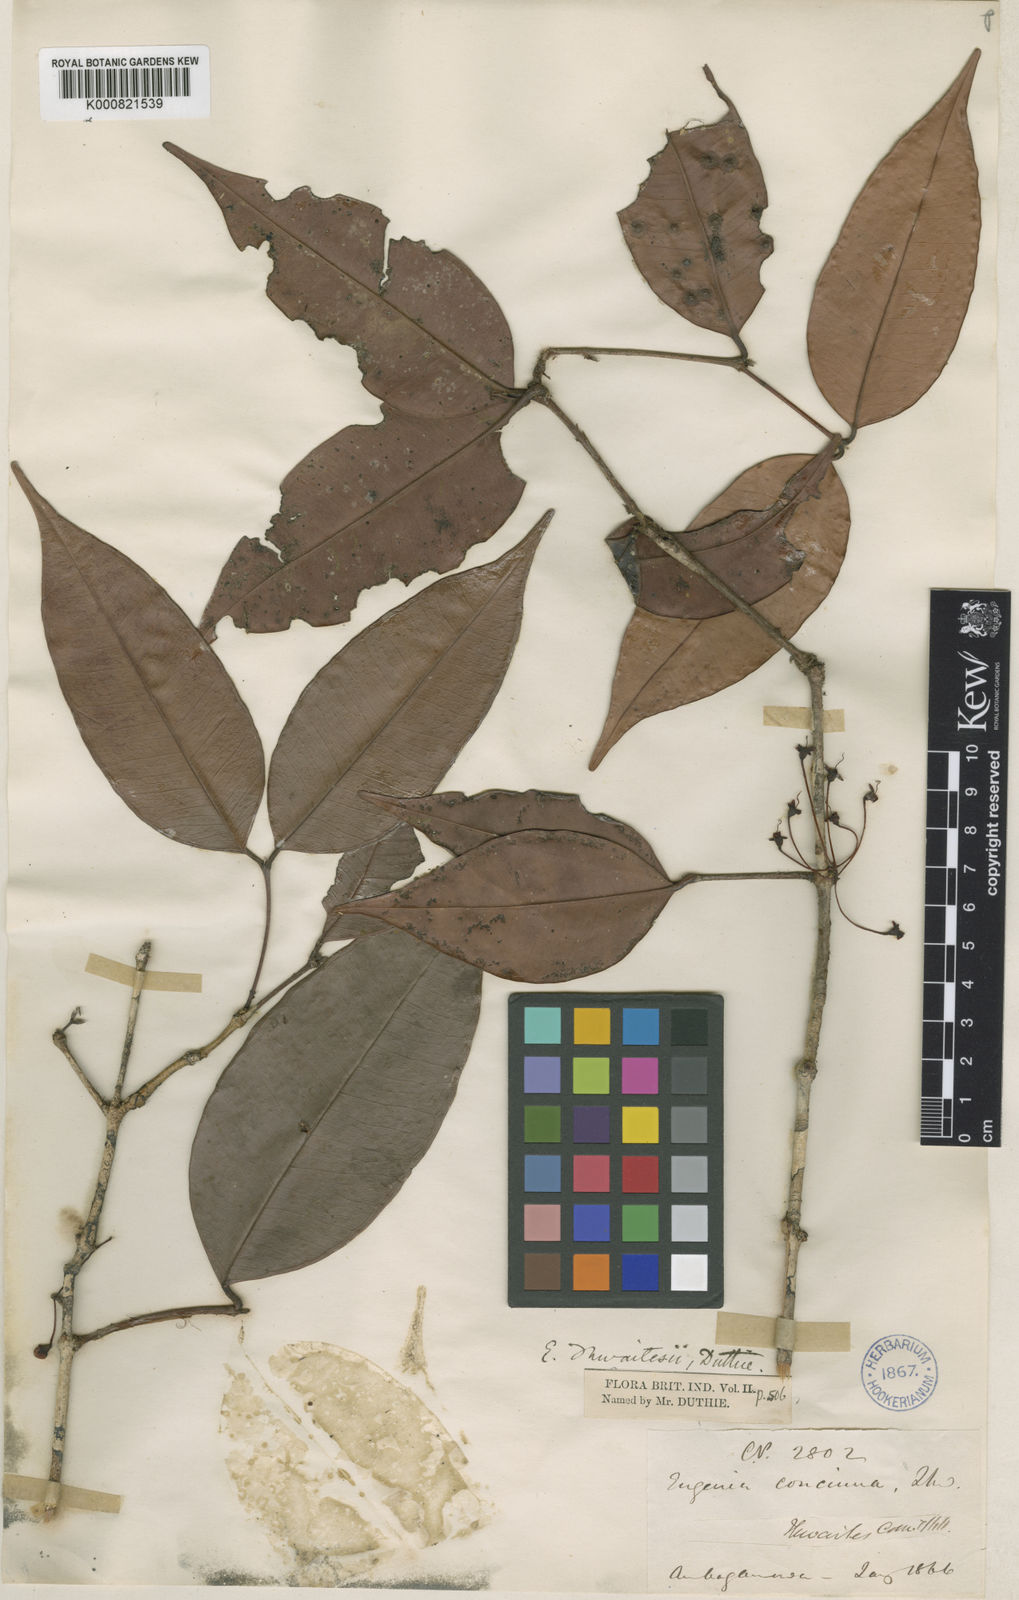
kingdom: Plantae
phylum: Tracheophyta
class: Magnoliopsida
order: Myrtales
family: Myrtaceae
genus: Eugenia
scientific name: Eugenia thwaitesii
